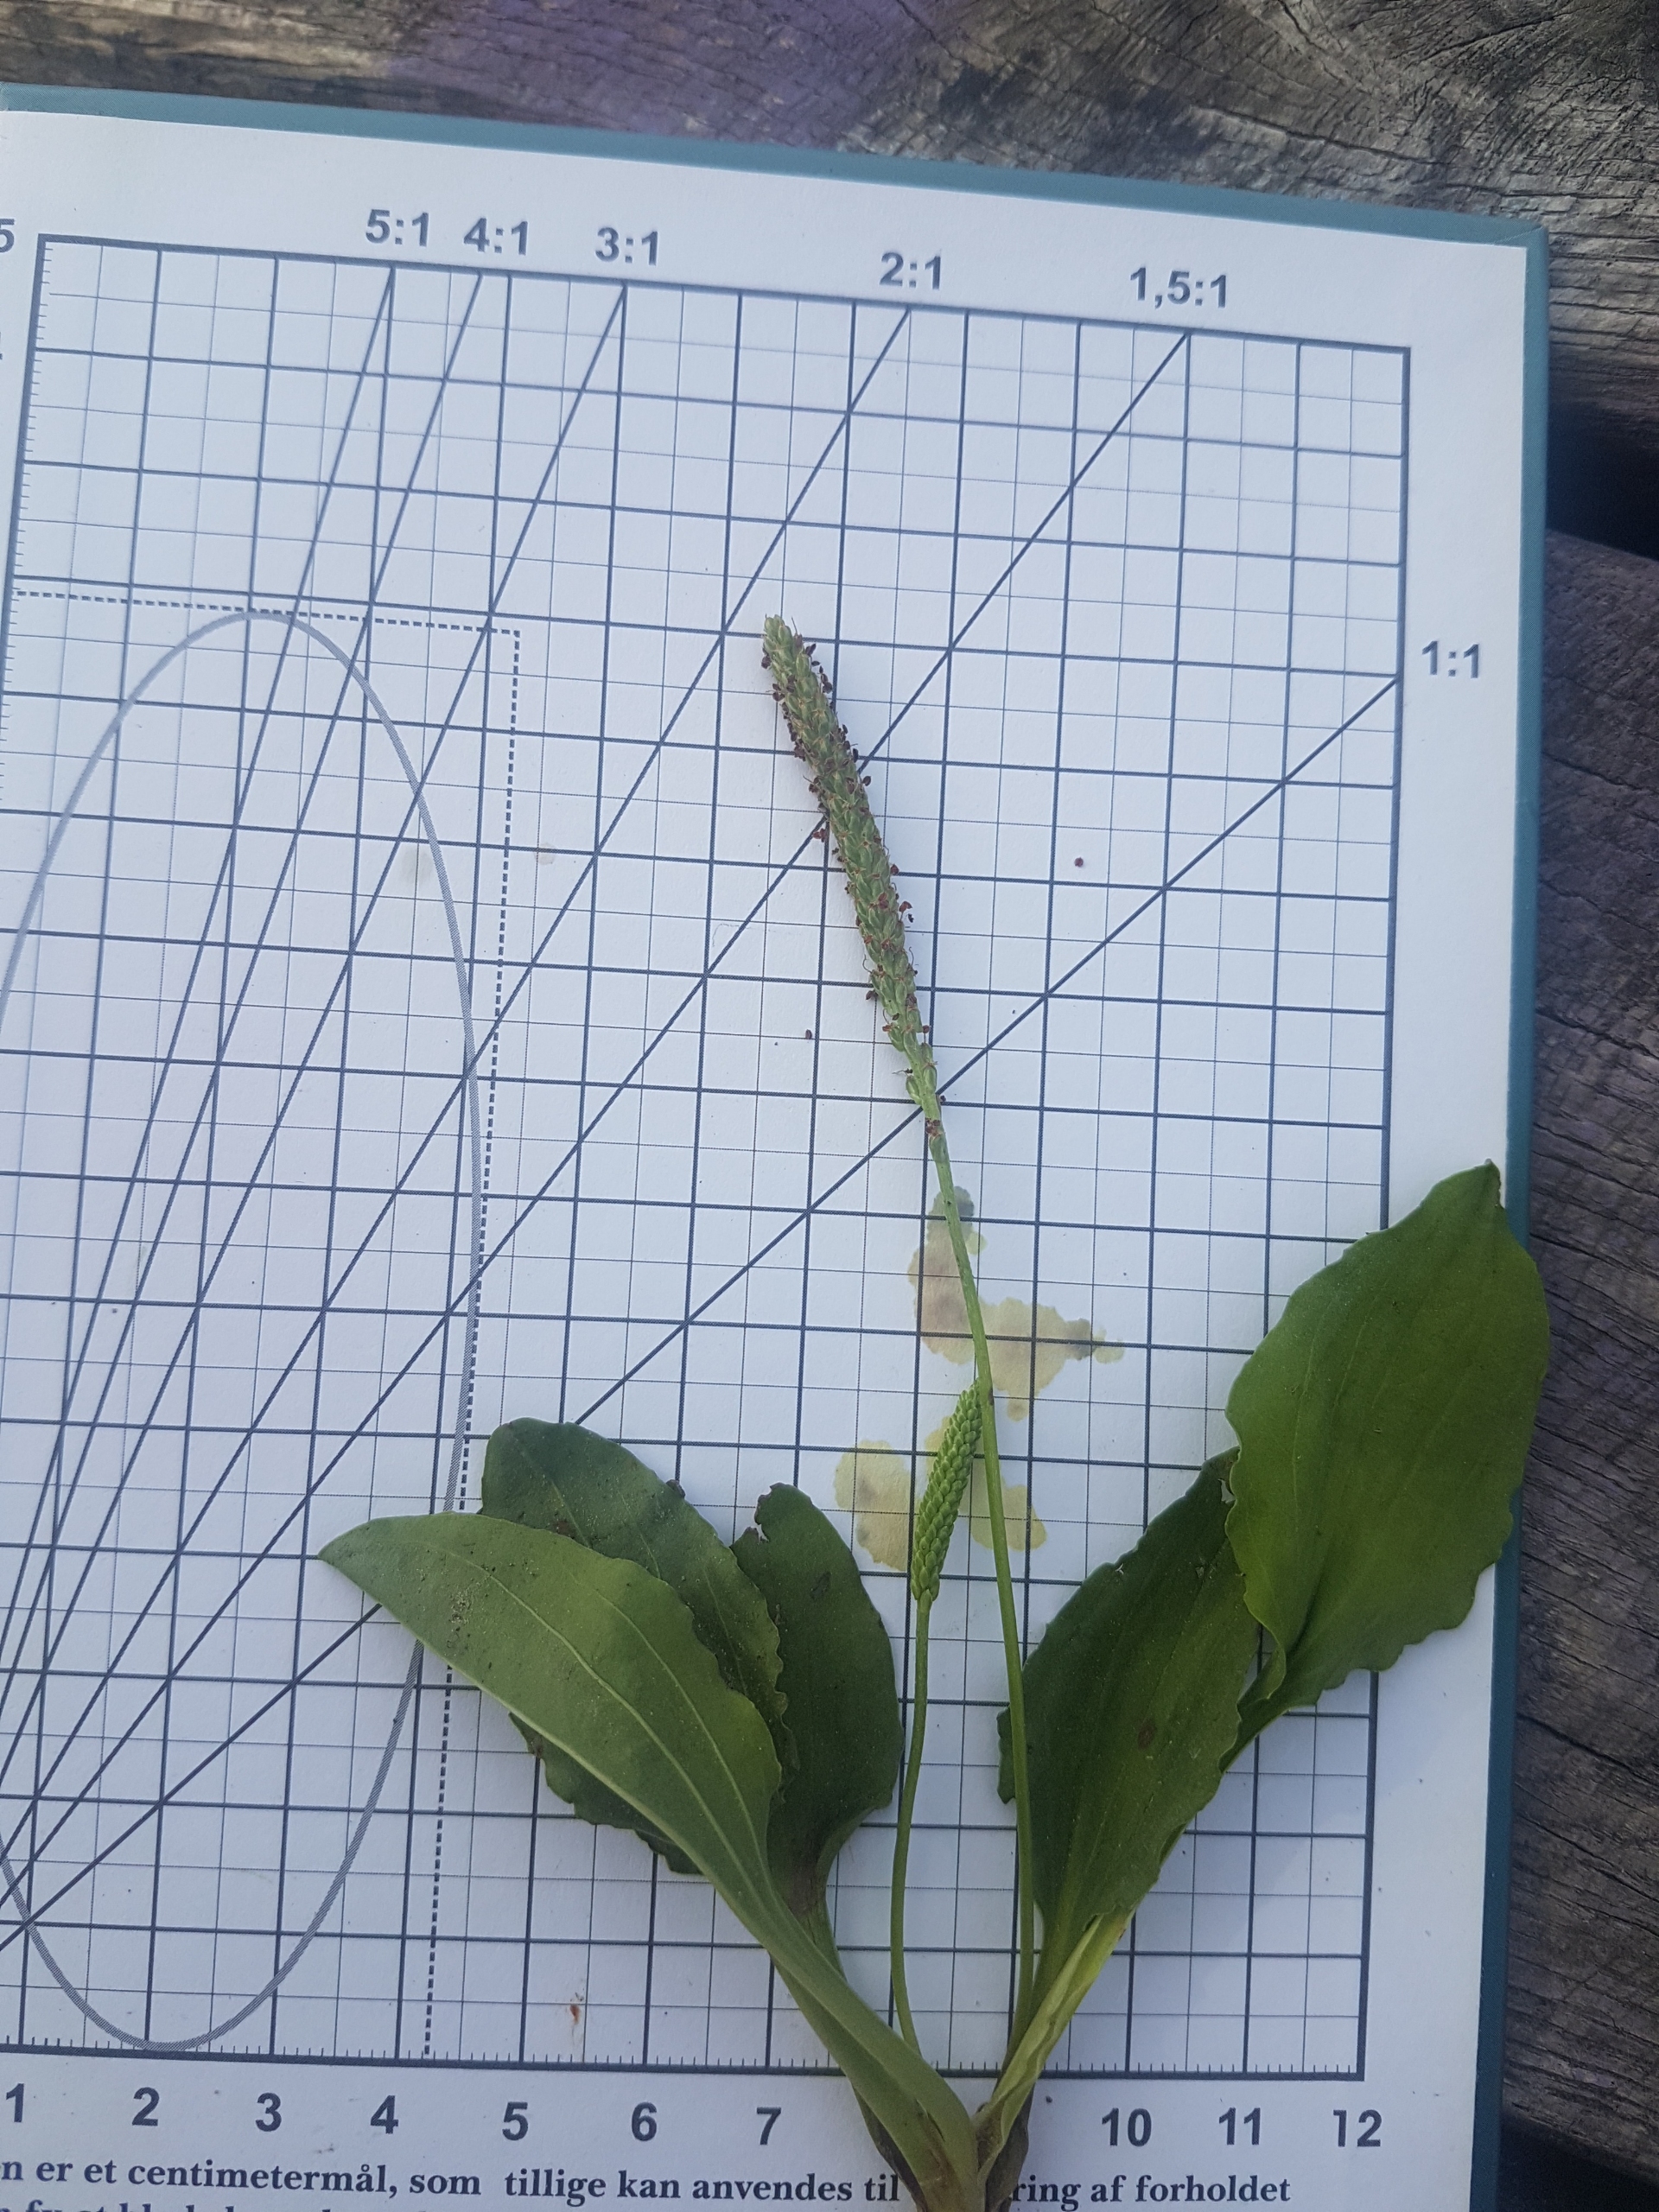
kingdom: Plantae
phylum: Tracheophyta
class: Magnoliopsida
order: Lamiales
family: Plantaginaceae
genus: Plantago
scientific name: Plantago major
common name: Glat vejbred
